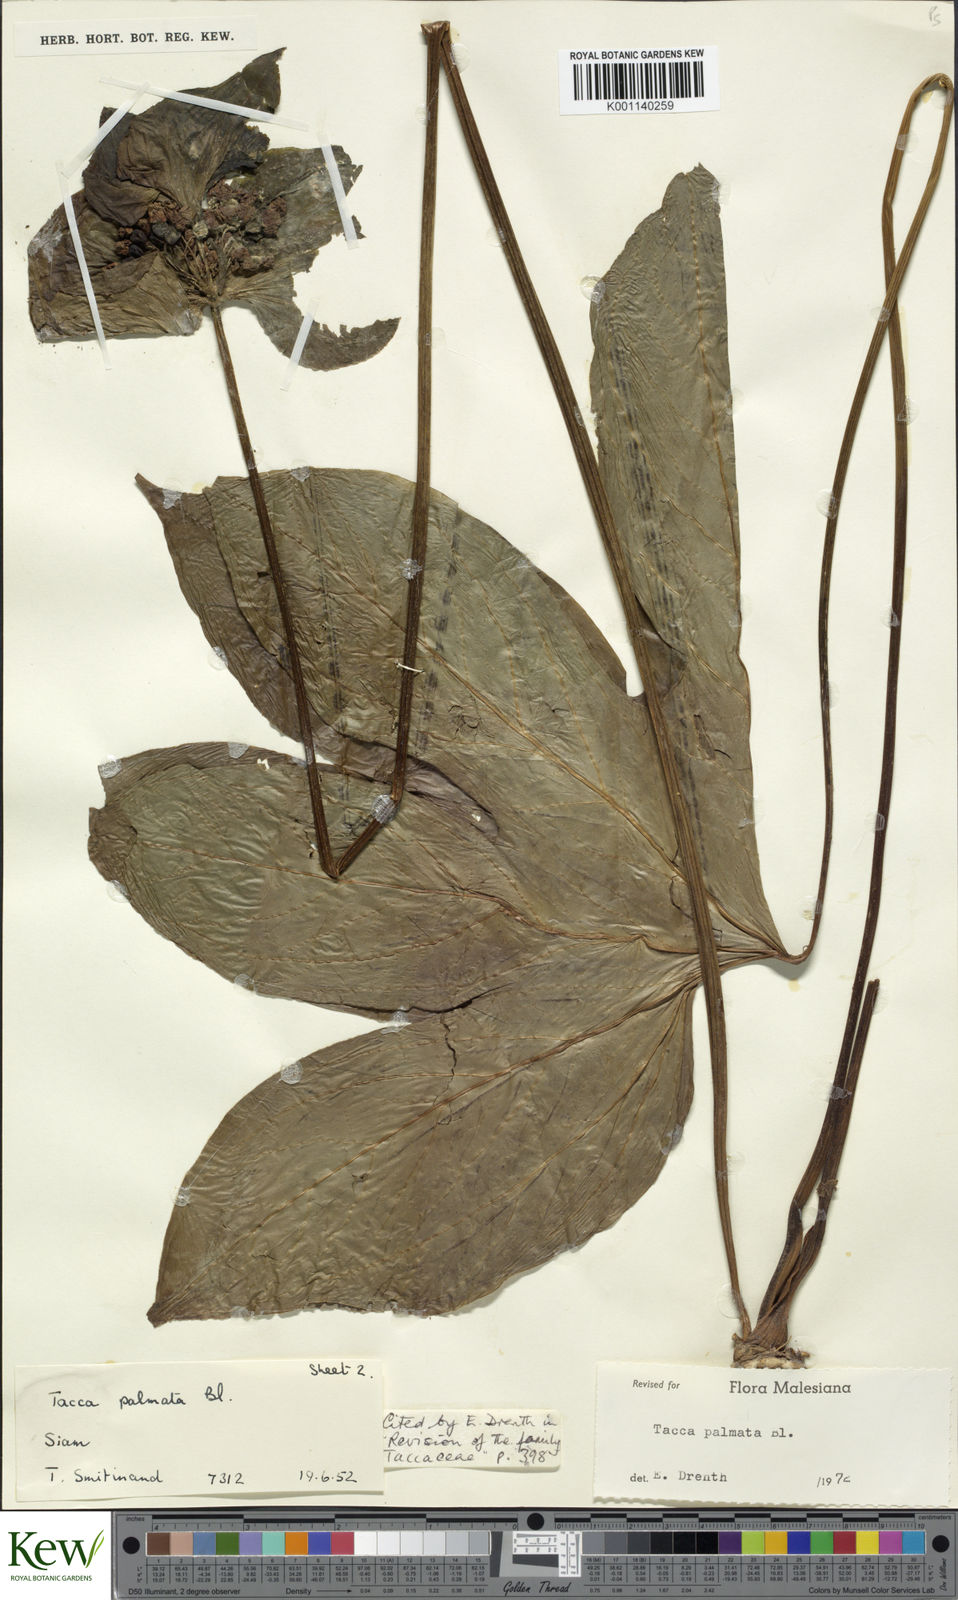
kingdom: Plantae
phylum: Tracheophyta
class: Liliopsida
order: Dioscoreales
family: Dioscoreaceae
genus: Tacca
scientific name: Tacca palmata
